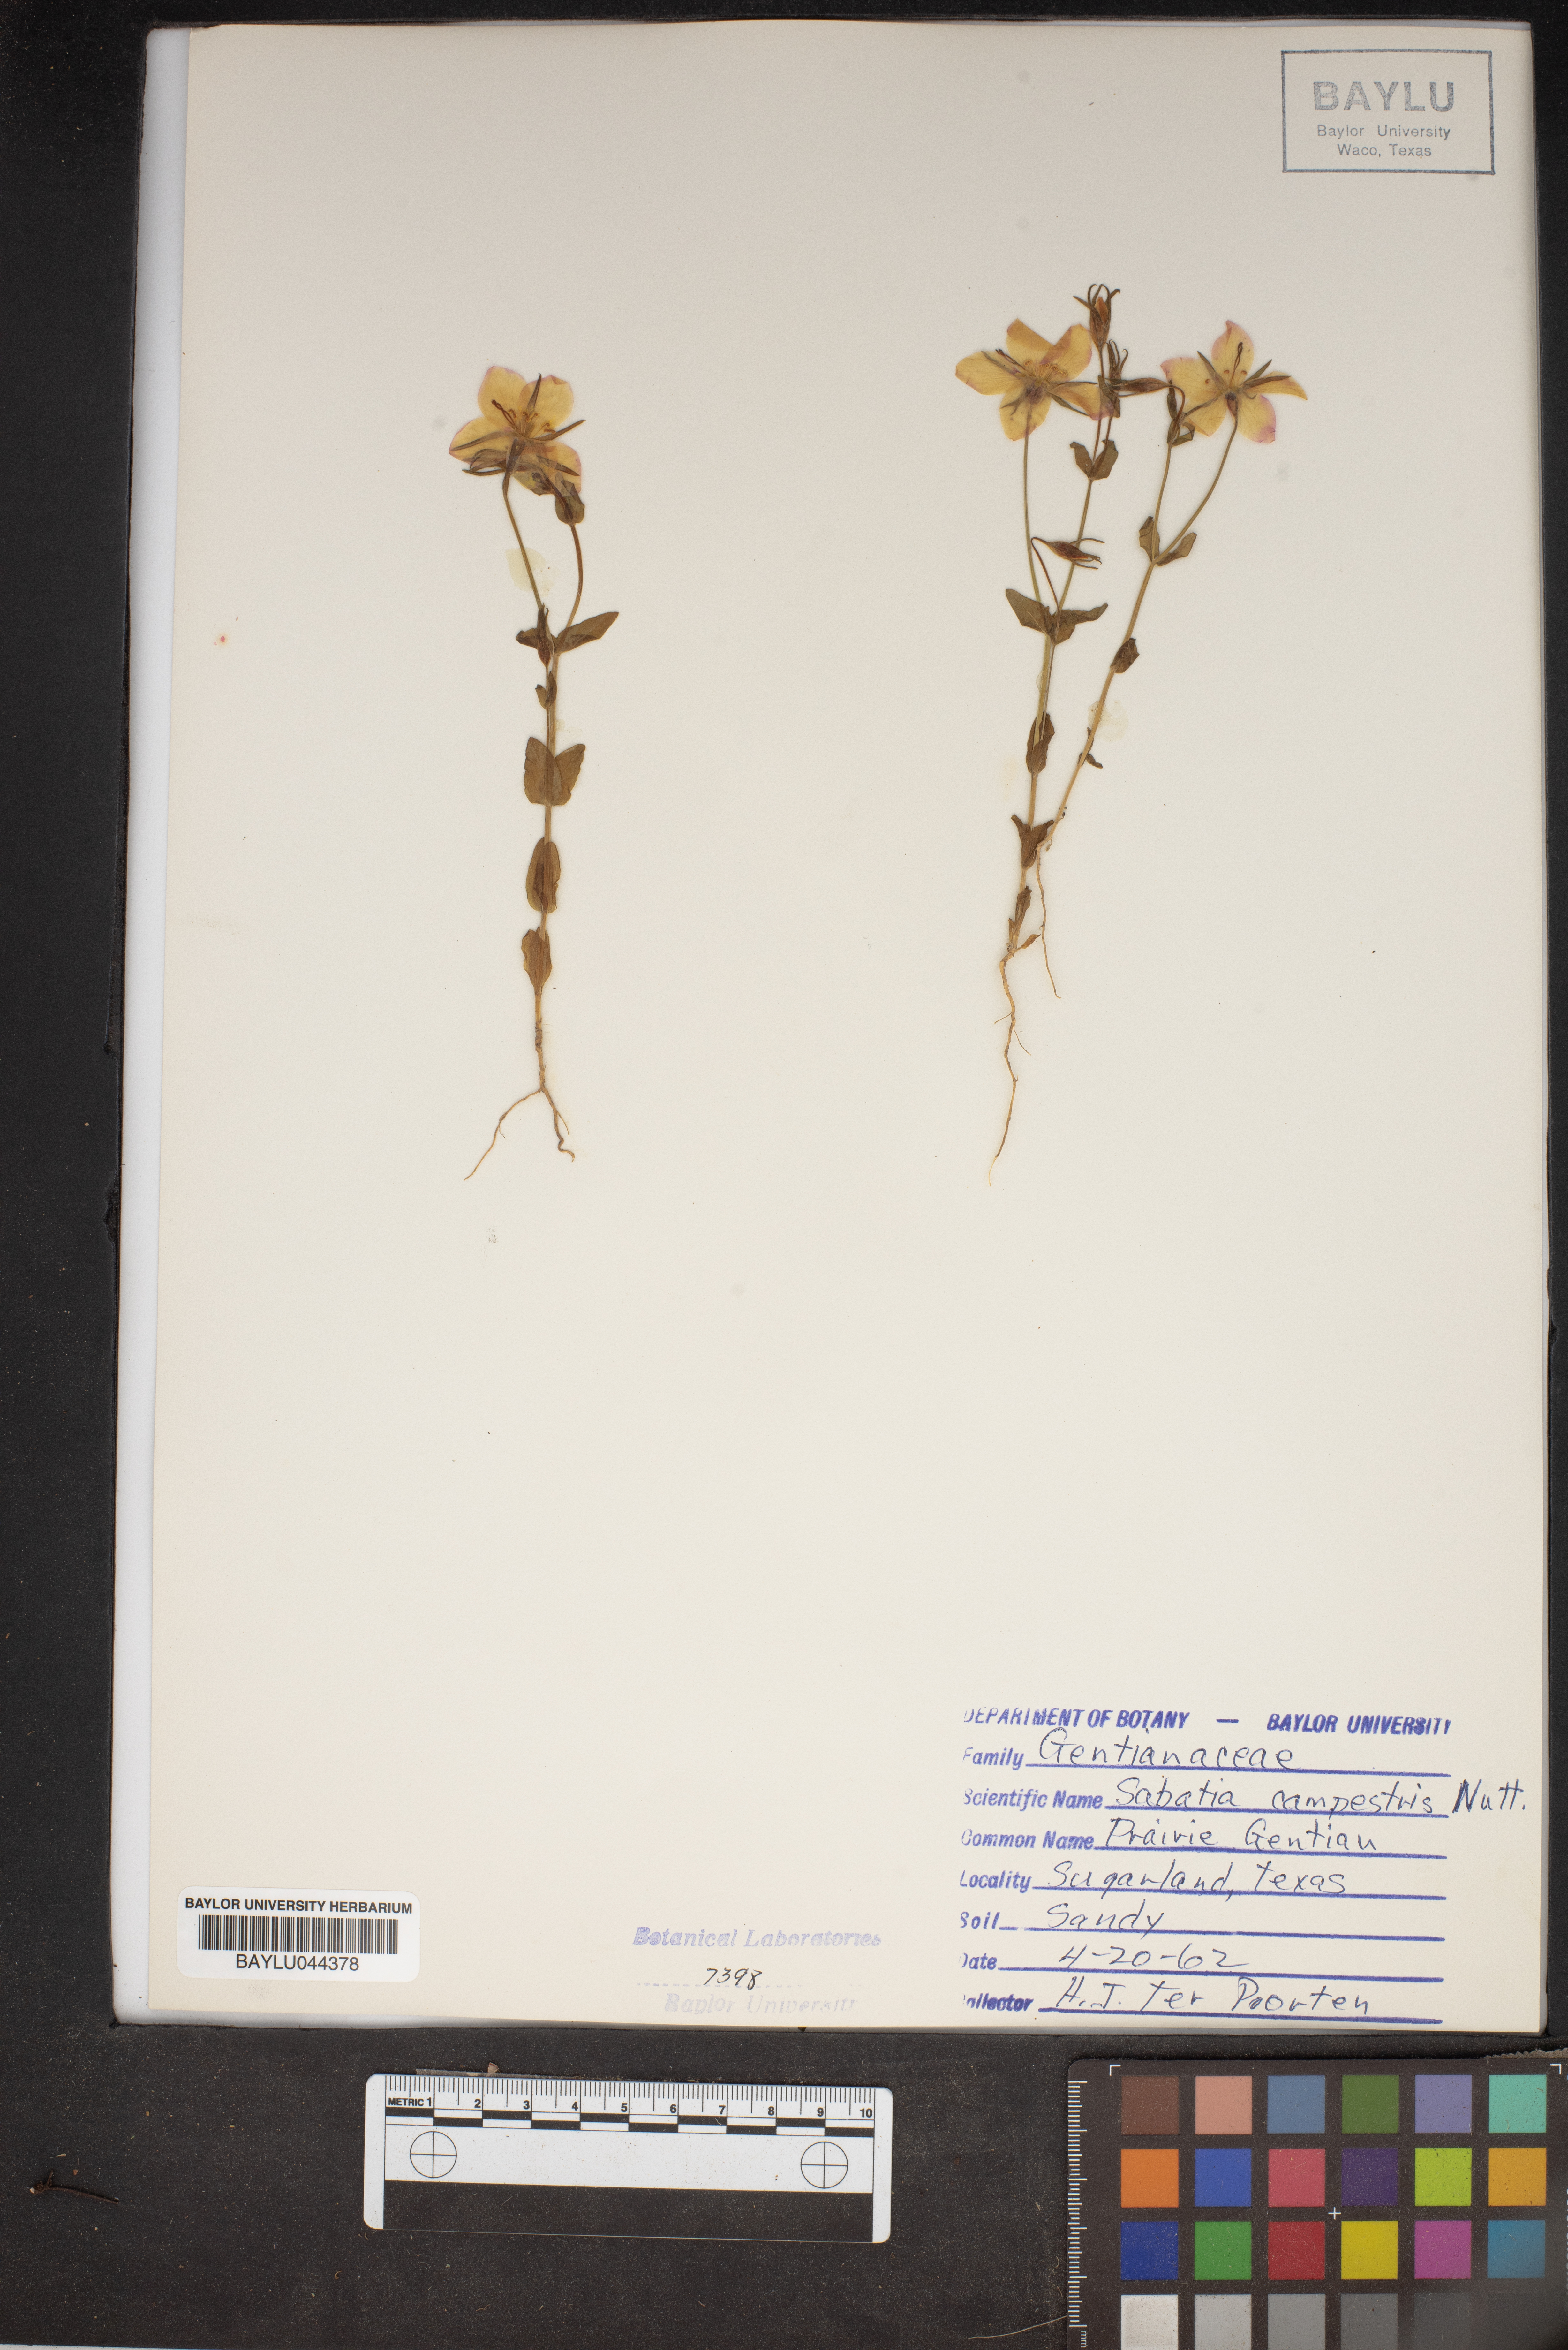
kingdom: Plantae
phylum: Tracheophyta
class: Magnoliopsida
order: Gentianales
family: Gentianaceae
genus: Sabatia
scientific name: Sabatia campestris
